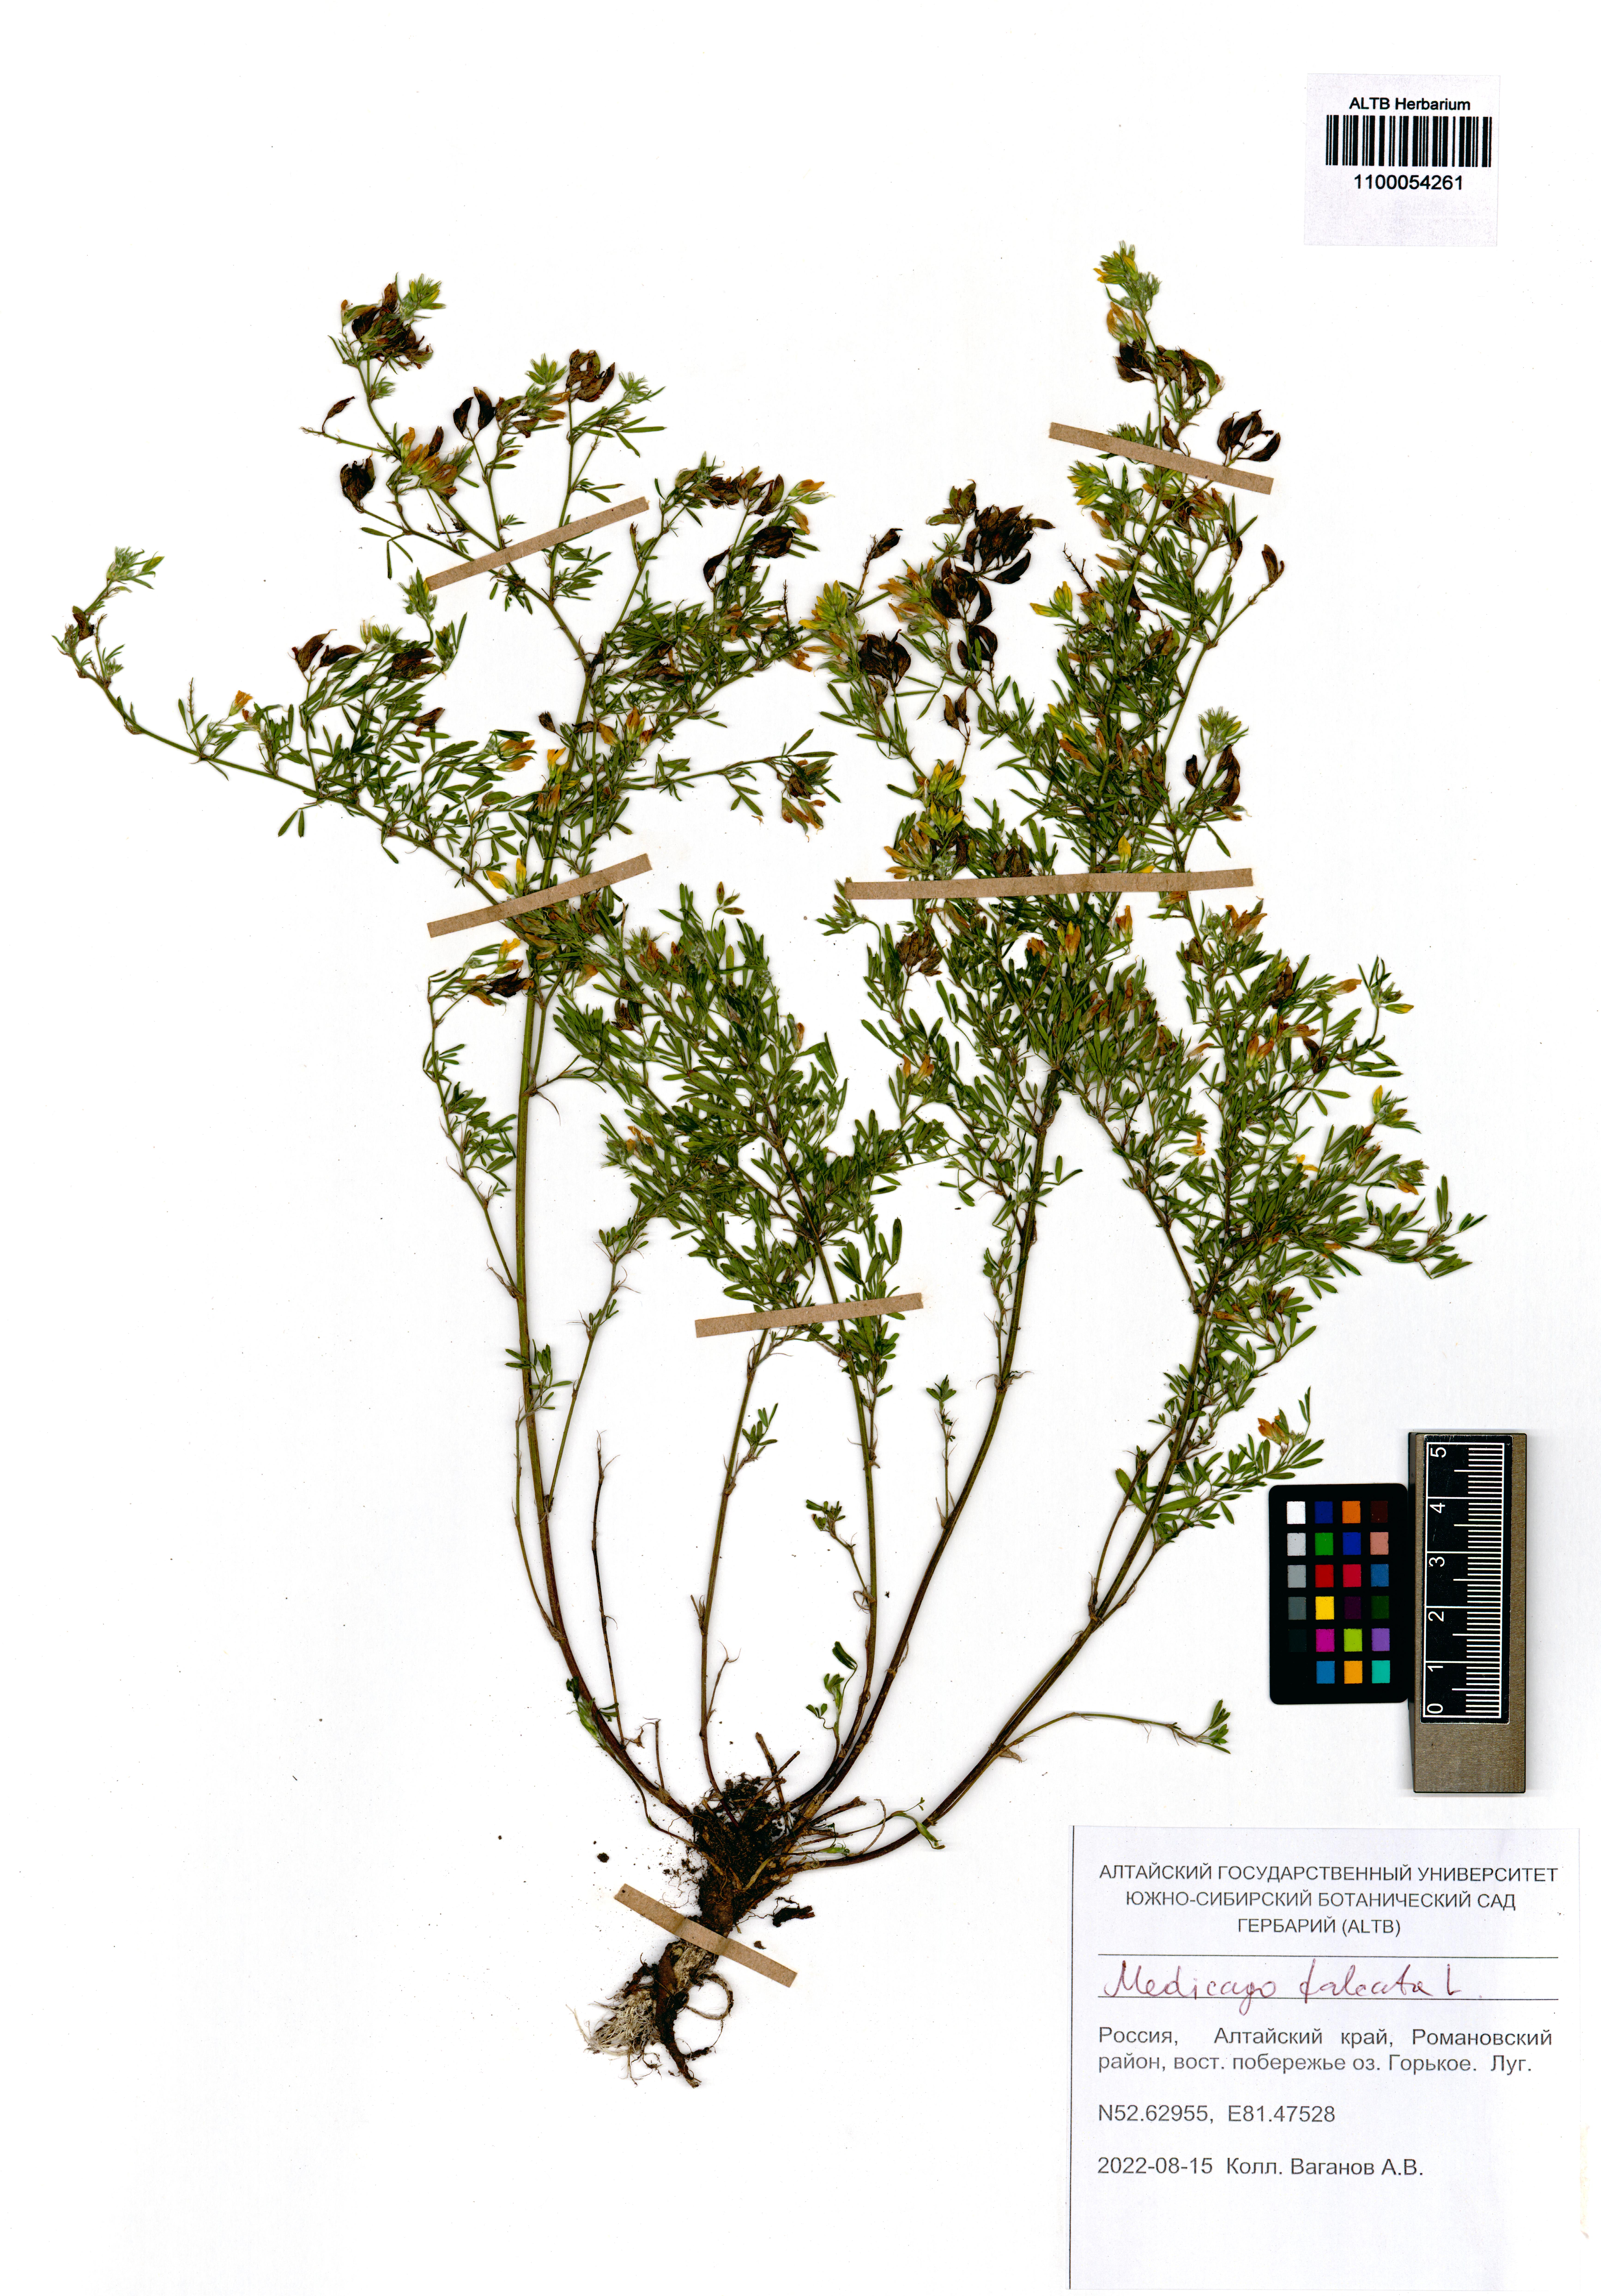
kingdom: Plantae
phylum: Tracheophyta
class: Magnoliopsida
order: Fabales
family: Fabaceae
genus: Medicago
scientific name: Medicago falcata
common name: Sickle medick
